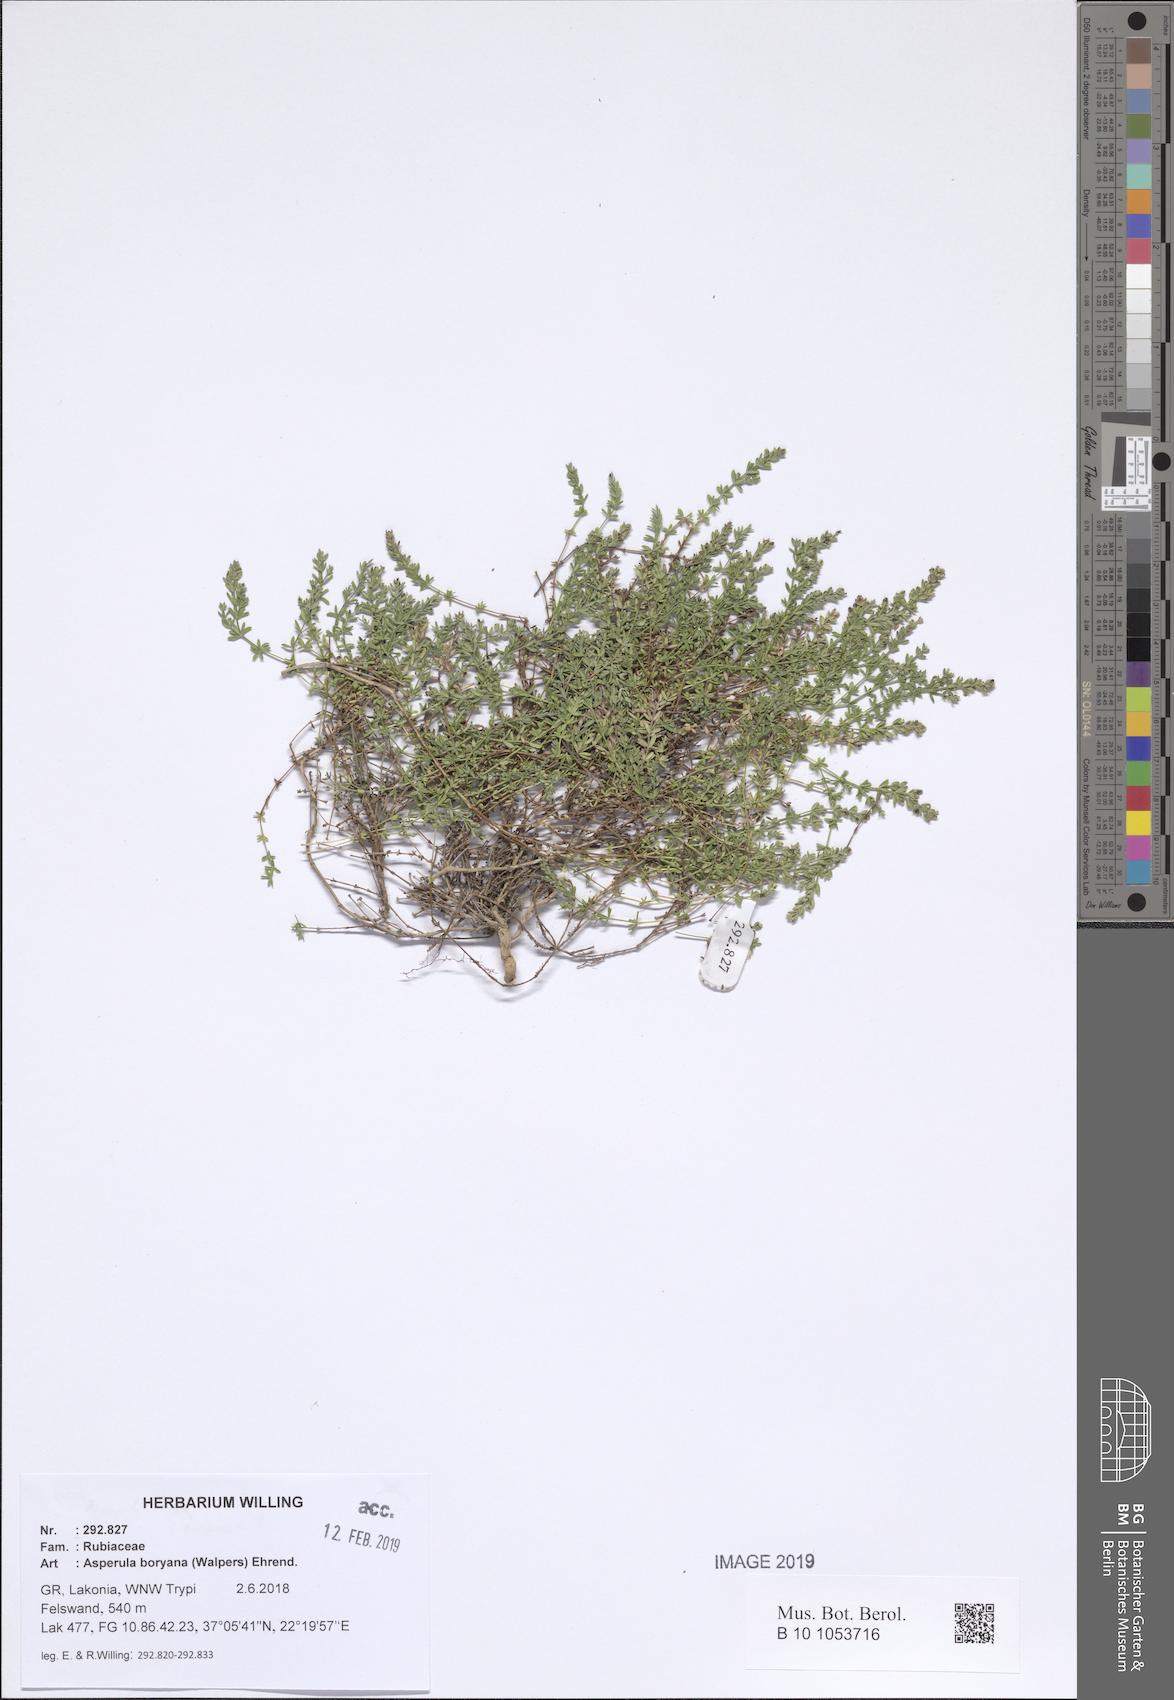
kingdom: Plantae
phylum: Tracheophyta
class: Magnoliopsida
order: Gentianales
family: Rubiaceae
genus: Thliphthisa
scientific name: Thliphthisa pusilla
